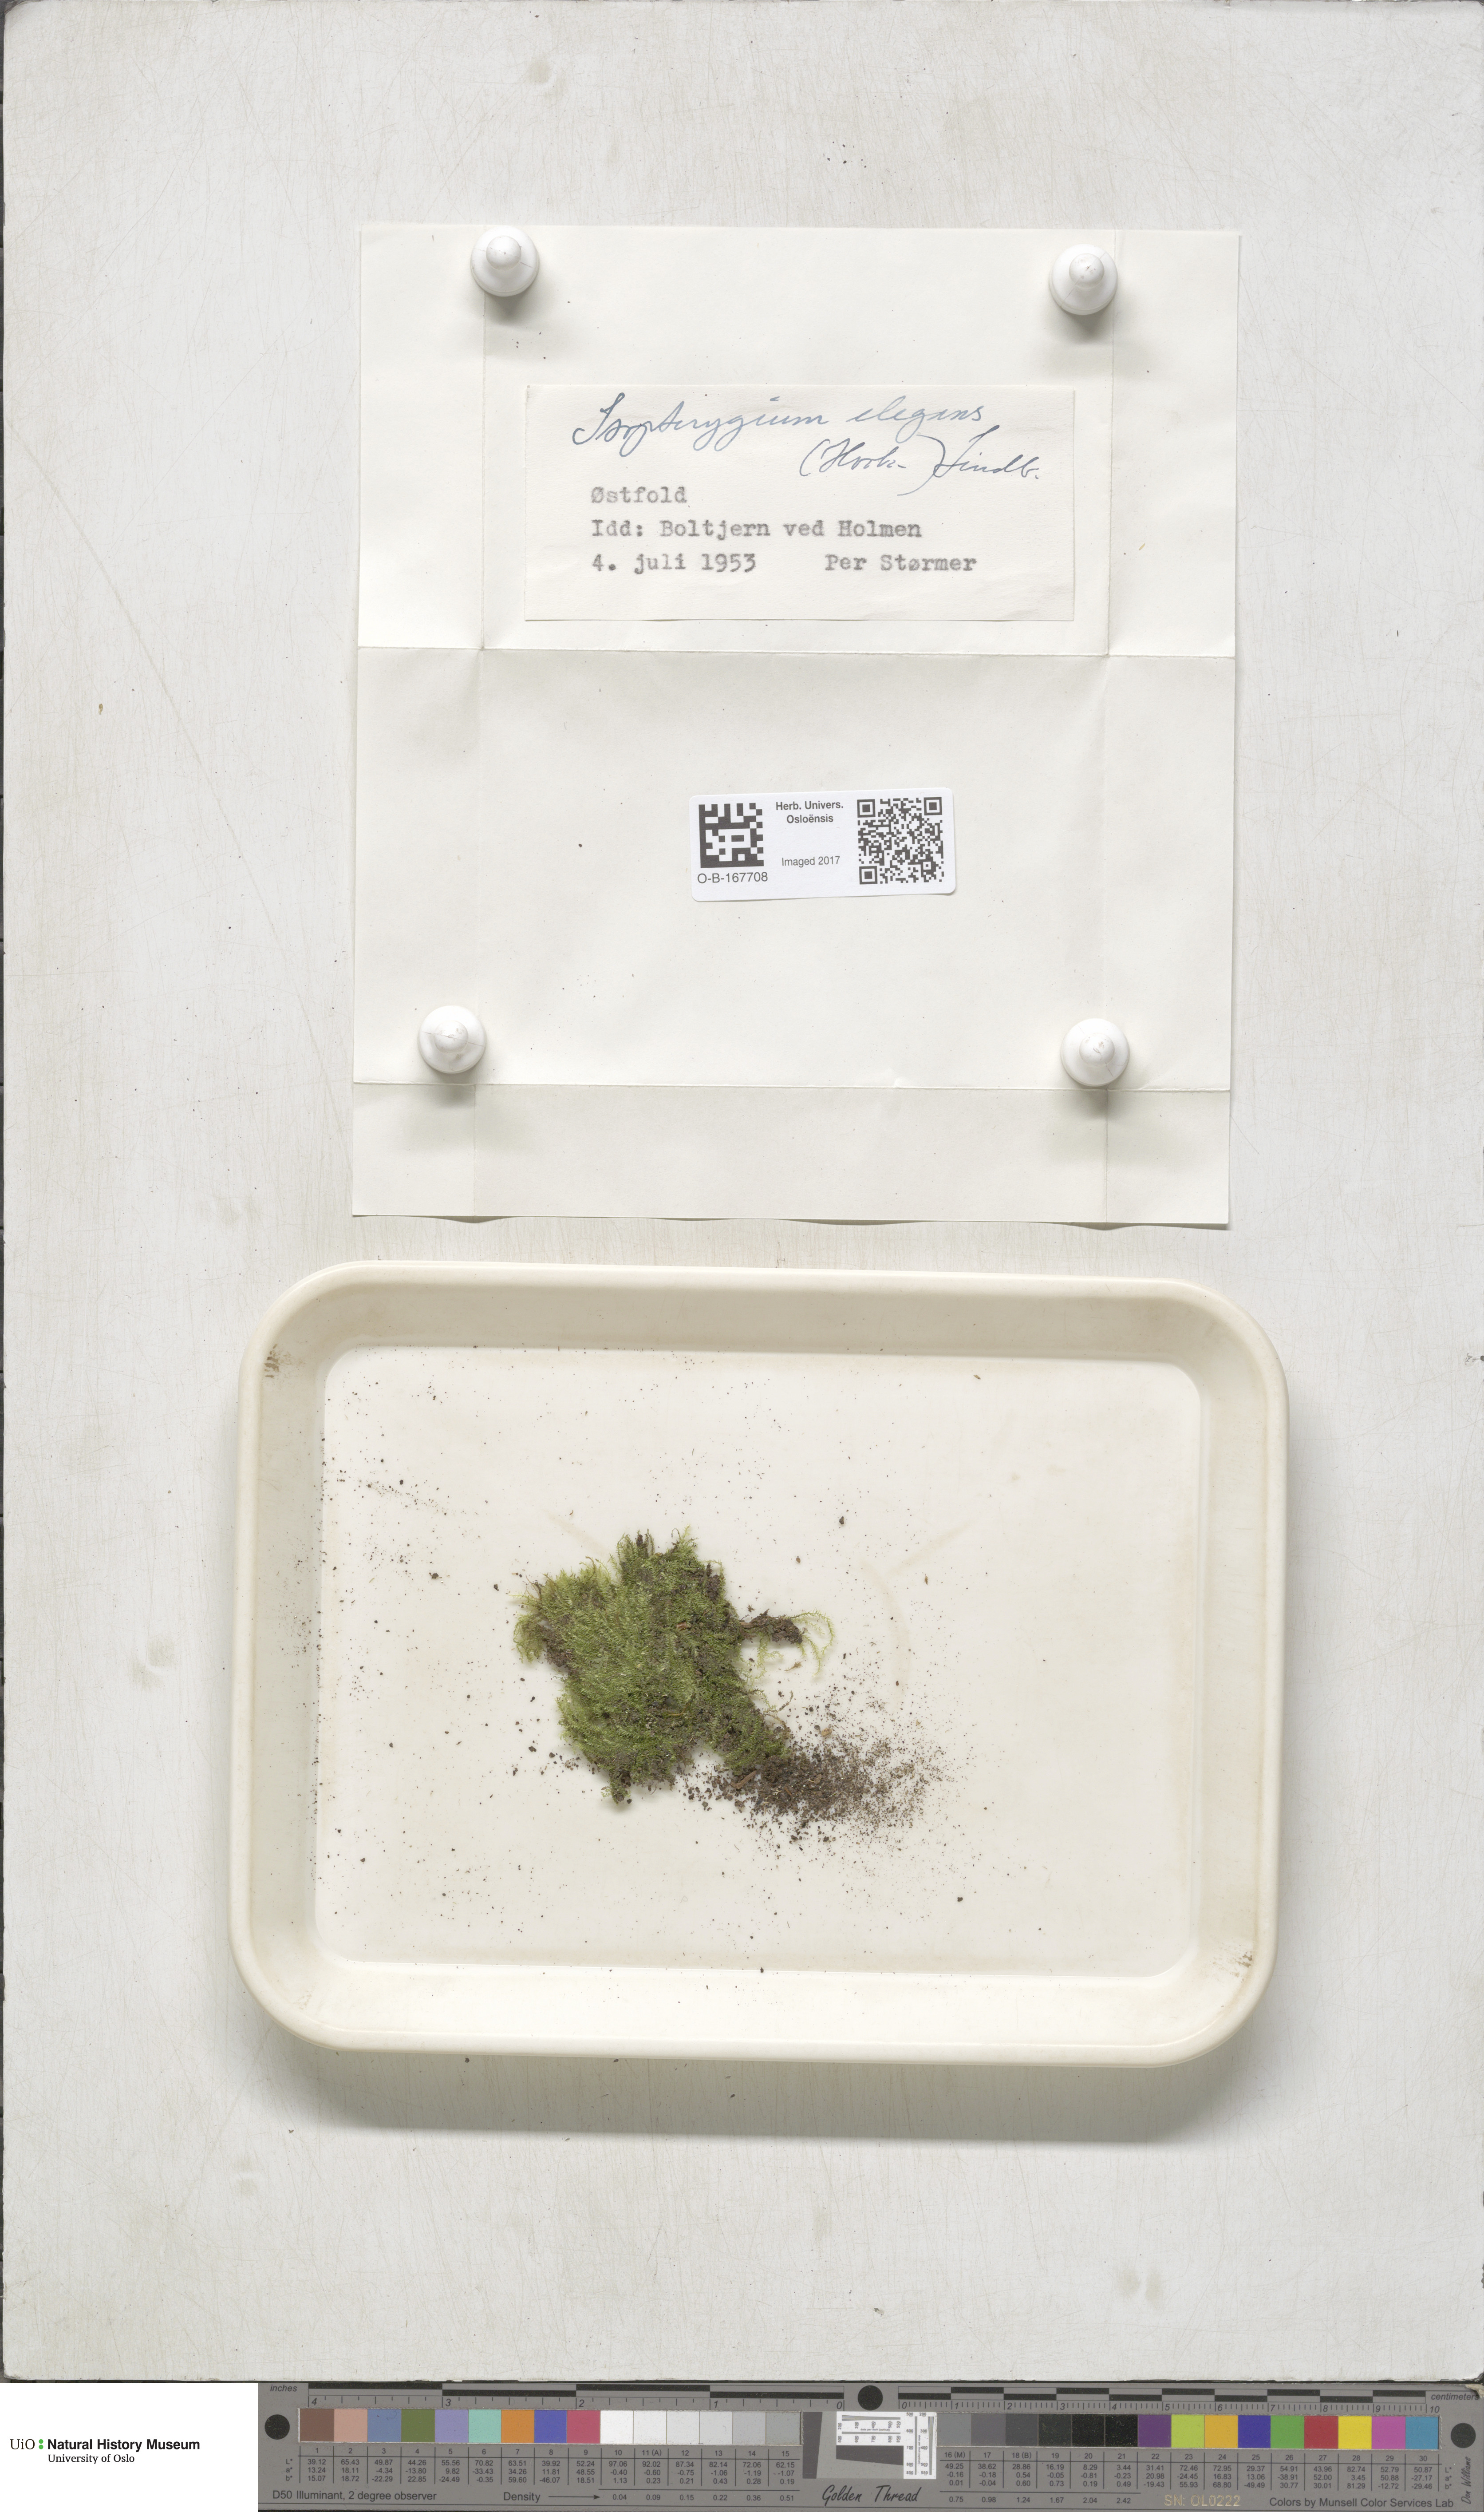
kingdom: Plantae
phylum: Bryophyta
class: Bryopsida
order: Hypnales
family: Plagiotheciaceae
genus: Pseudotaxiphyllum
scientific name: Pseudotaxiphyllum elegans
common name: Elegant silk moss
